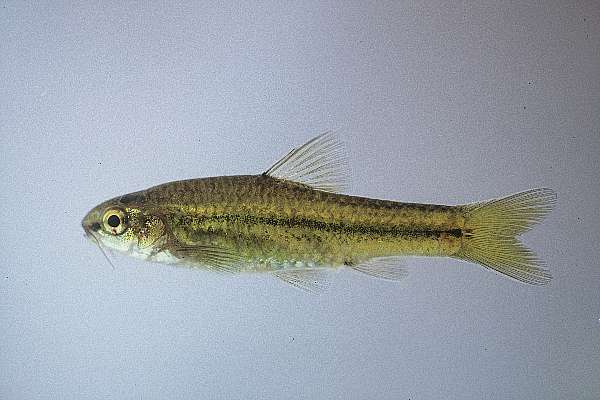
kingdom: Animalia
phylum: Chordata
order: Cypriniformes
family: Cyprinidae
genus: Barbus
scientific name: Barbus
